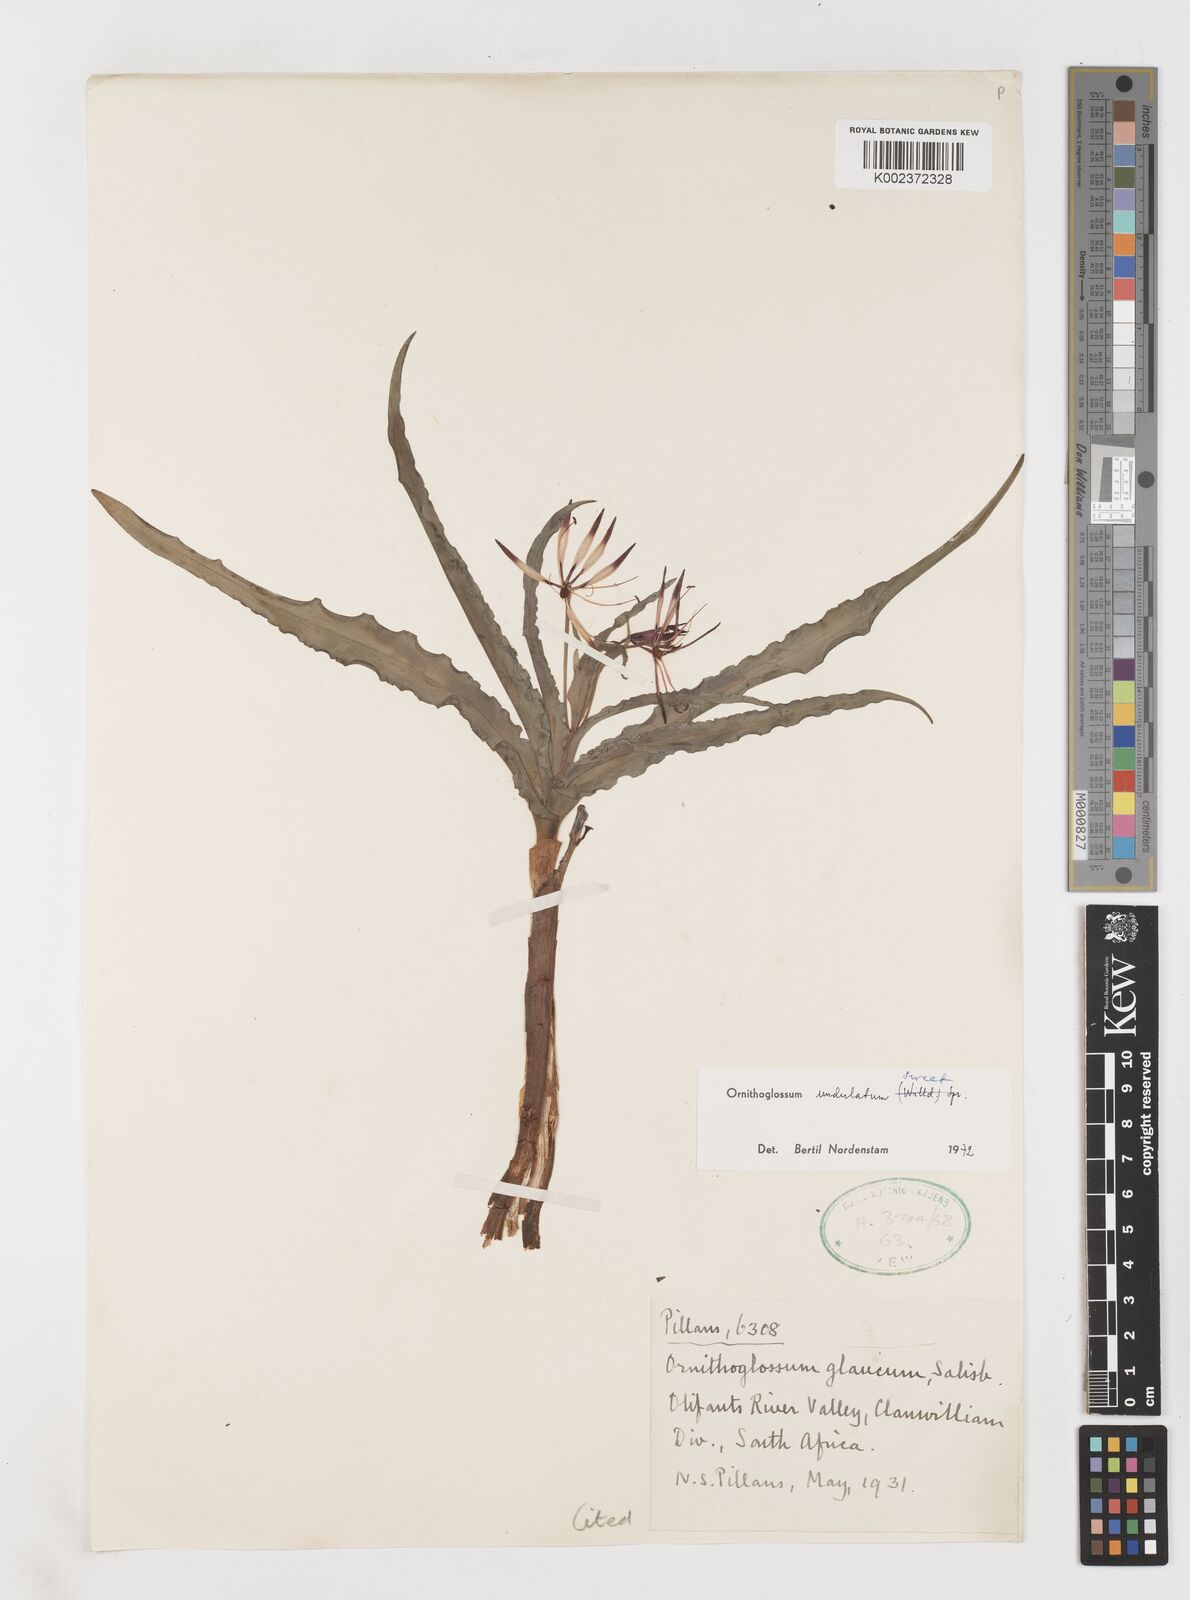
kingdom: Plantae
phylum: Tracheophyta
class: Liliopsida
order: Liliales
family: Colchicaceae
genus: Ornithoglossum
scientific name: Ornithoglossum undulatum
